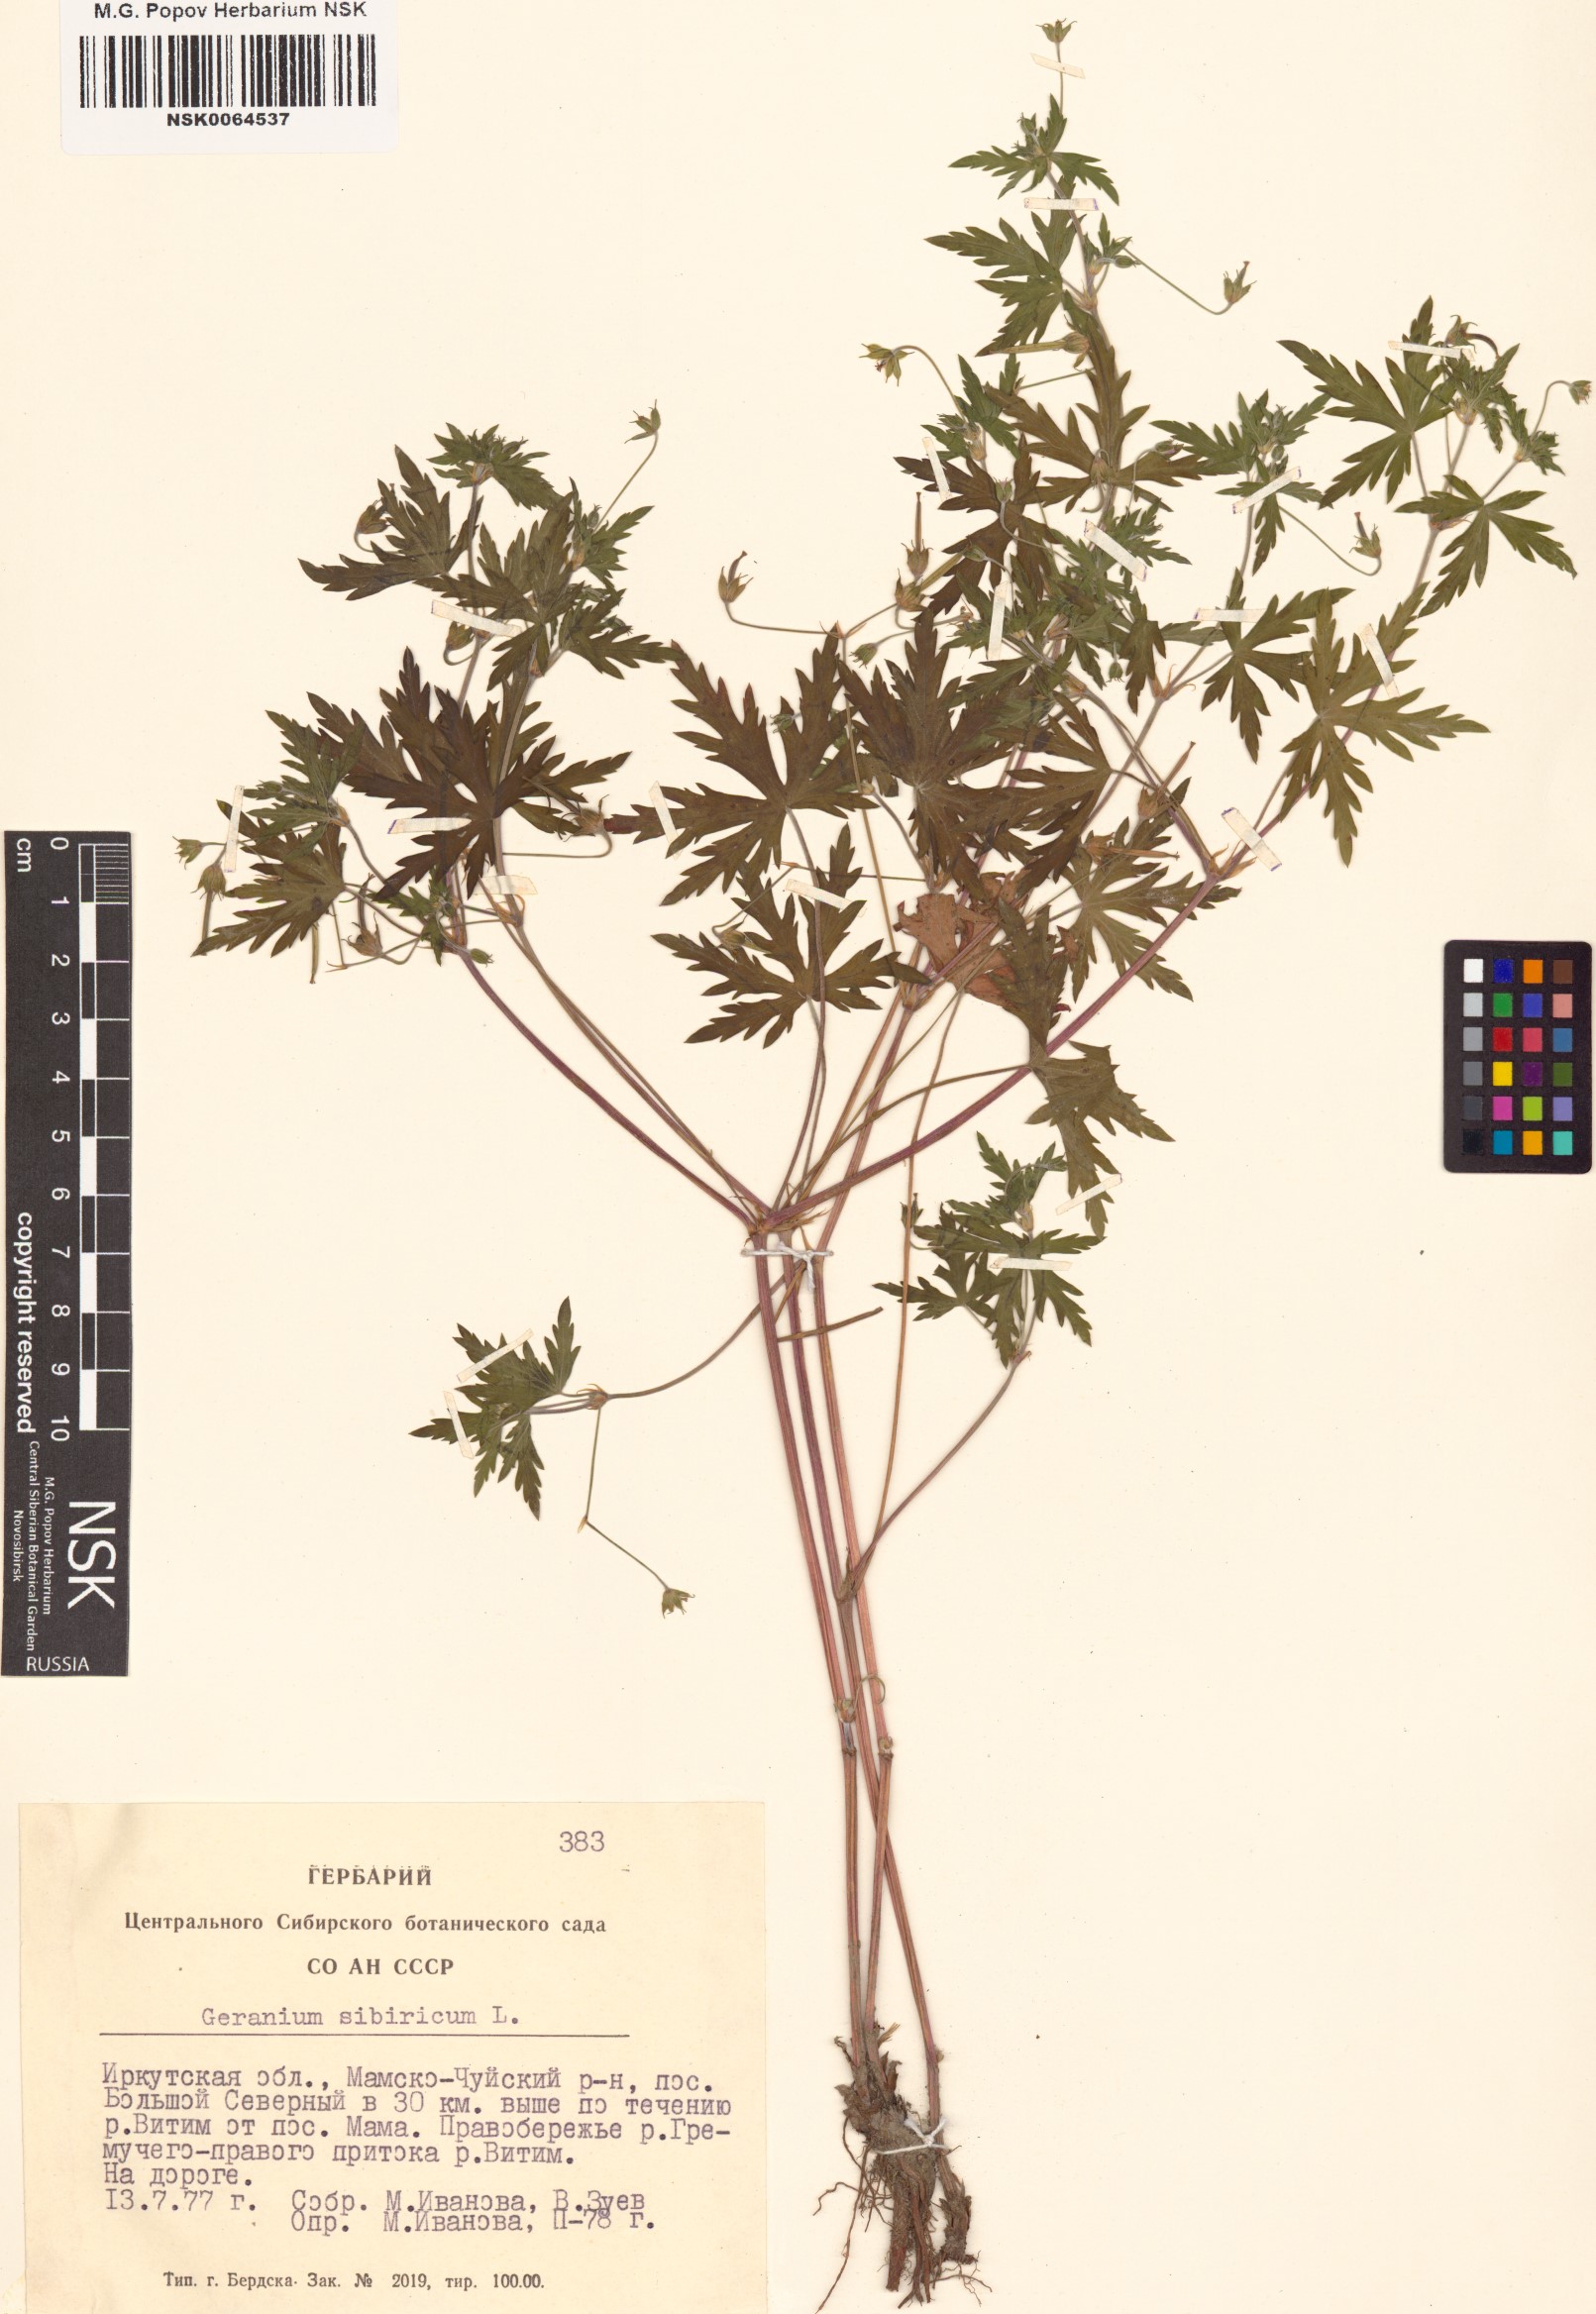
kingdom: Plantae
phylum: Tracheophyta
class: Magnoliopsida
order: Geraniales
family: Geraniaceae
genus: Geranium
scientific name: Geranium sibiricum
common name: Siberian crane's-bill
